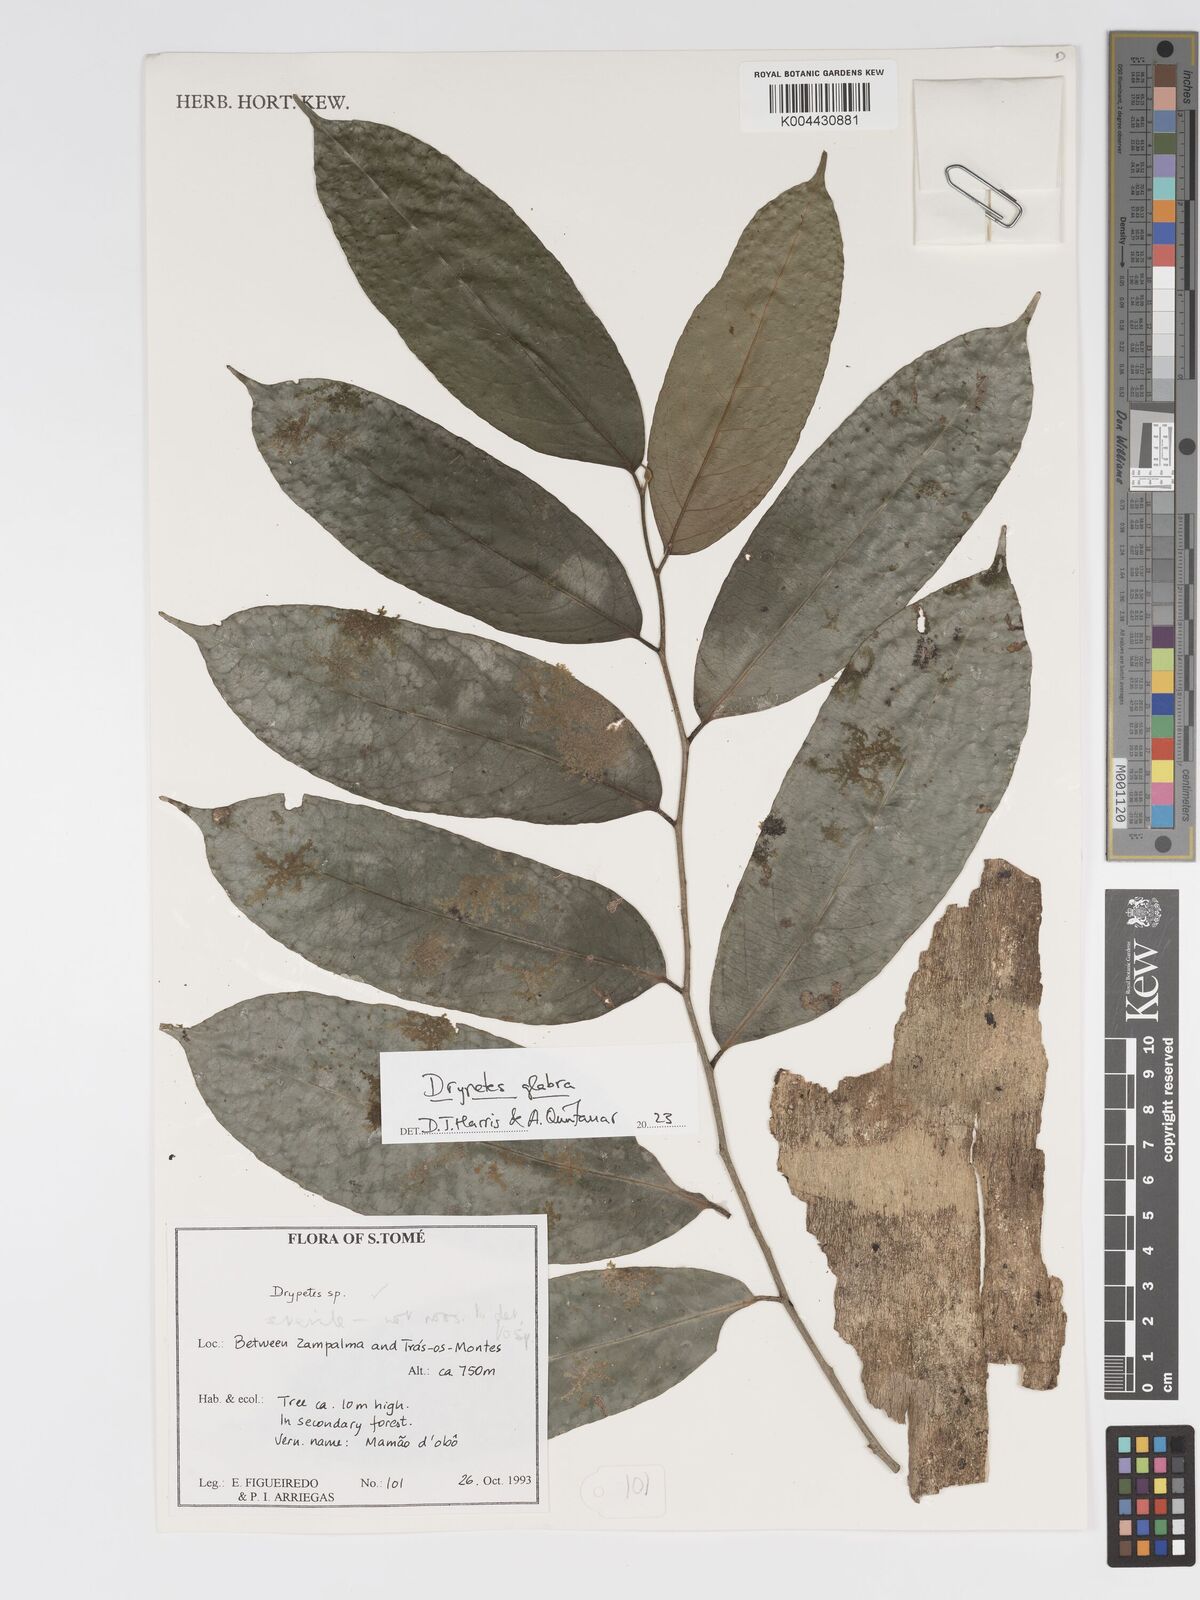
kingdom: Plantae
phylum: Tracheophyta
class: Magnoliopsida
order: Malpighiales
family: Putranjivaceae
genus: Drypetes
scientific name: Drypetes glabra
